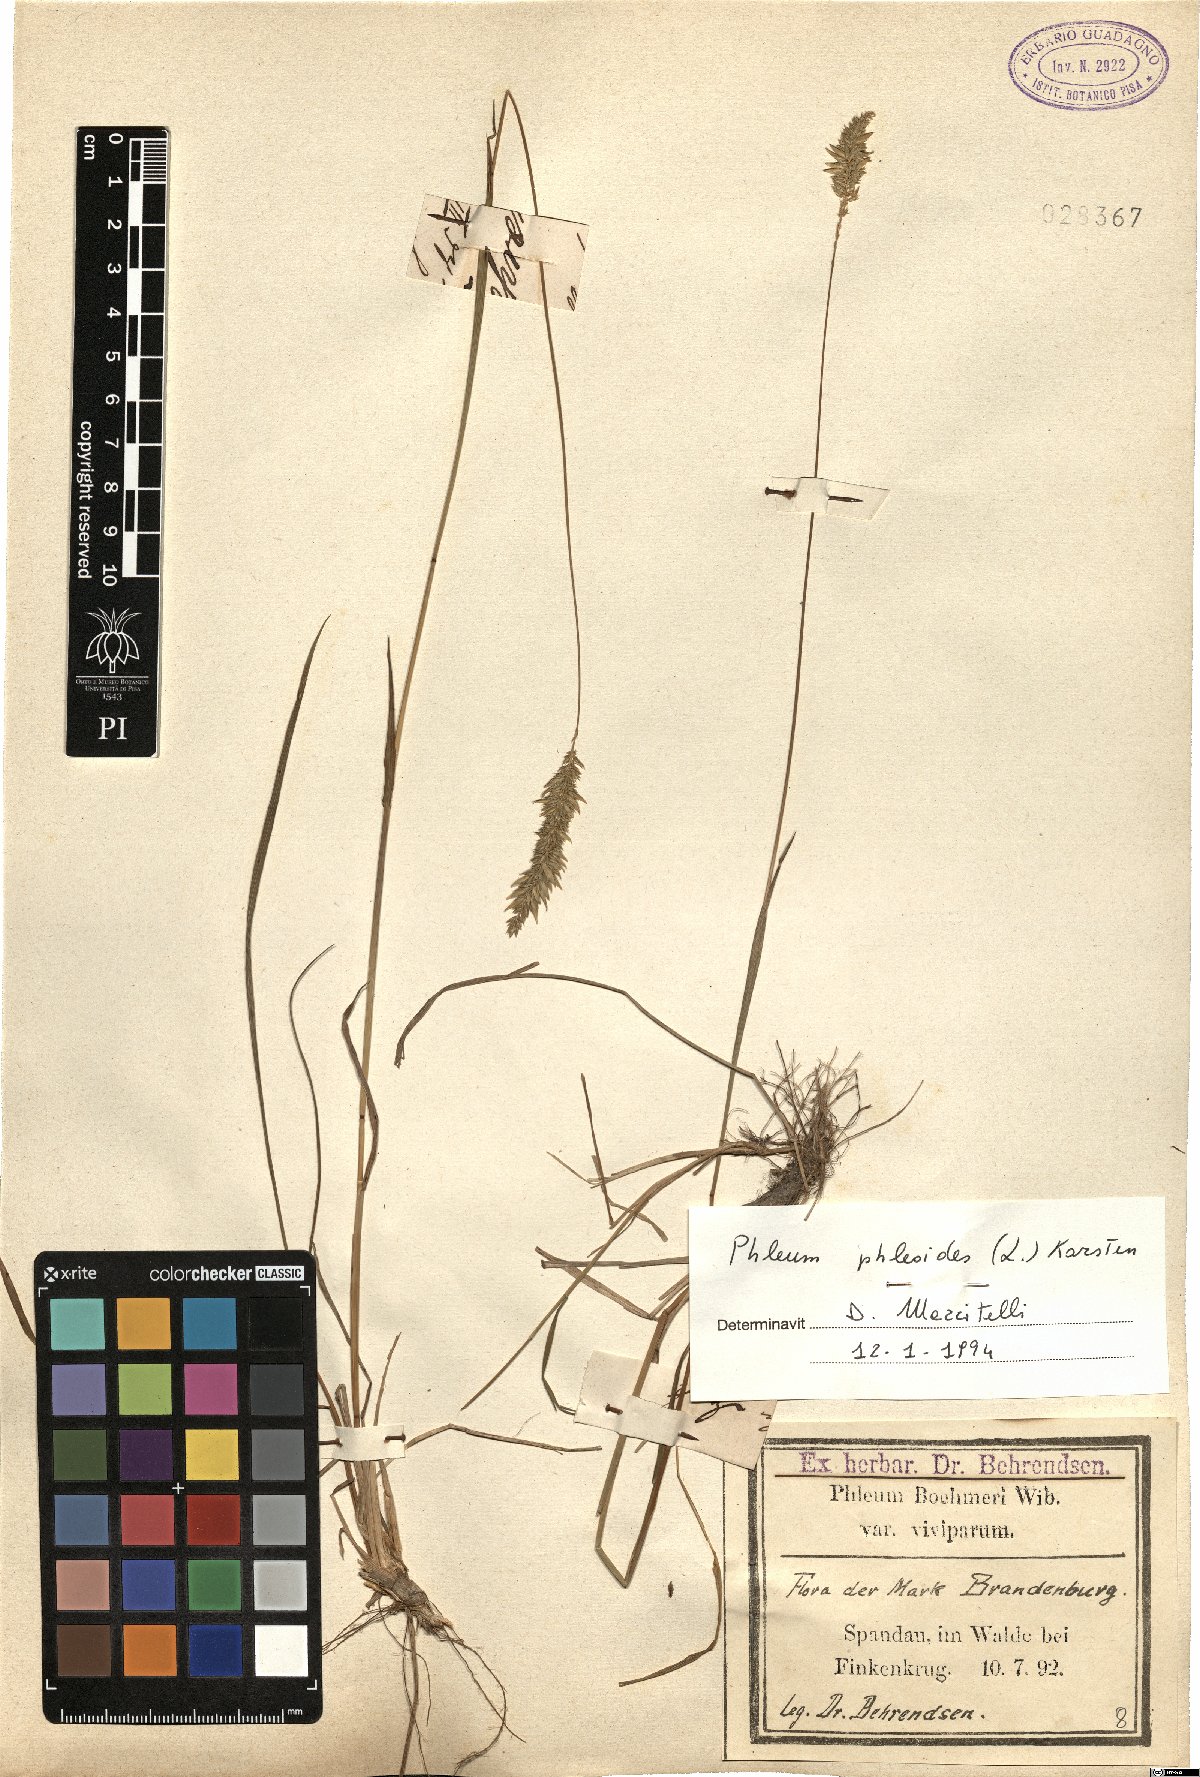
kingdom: Plantae
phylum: Tracheophyta
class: Liliopsida
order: Poales
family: Poaceae
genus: Phleum
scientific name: Phleum phleoides
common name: Purple-stem cat's-tail
